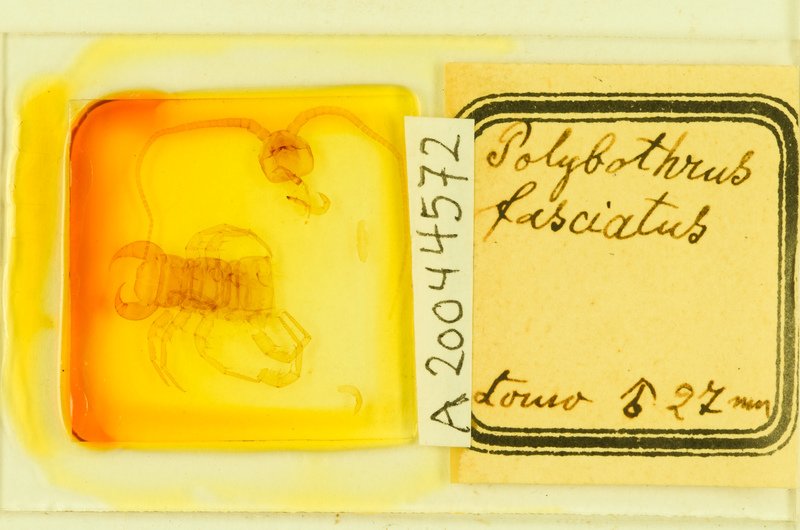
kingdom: Animalia
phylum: Arthropoda
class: Chilopoda
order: Lithobiomorpha
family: Lithobiidae
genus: Polybothrus
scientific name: Polybothrus fasciatus
